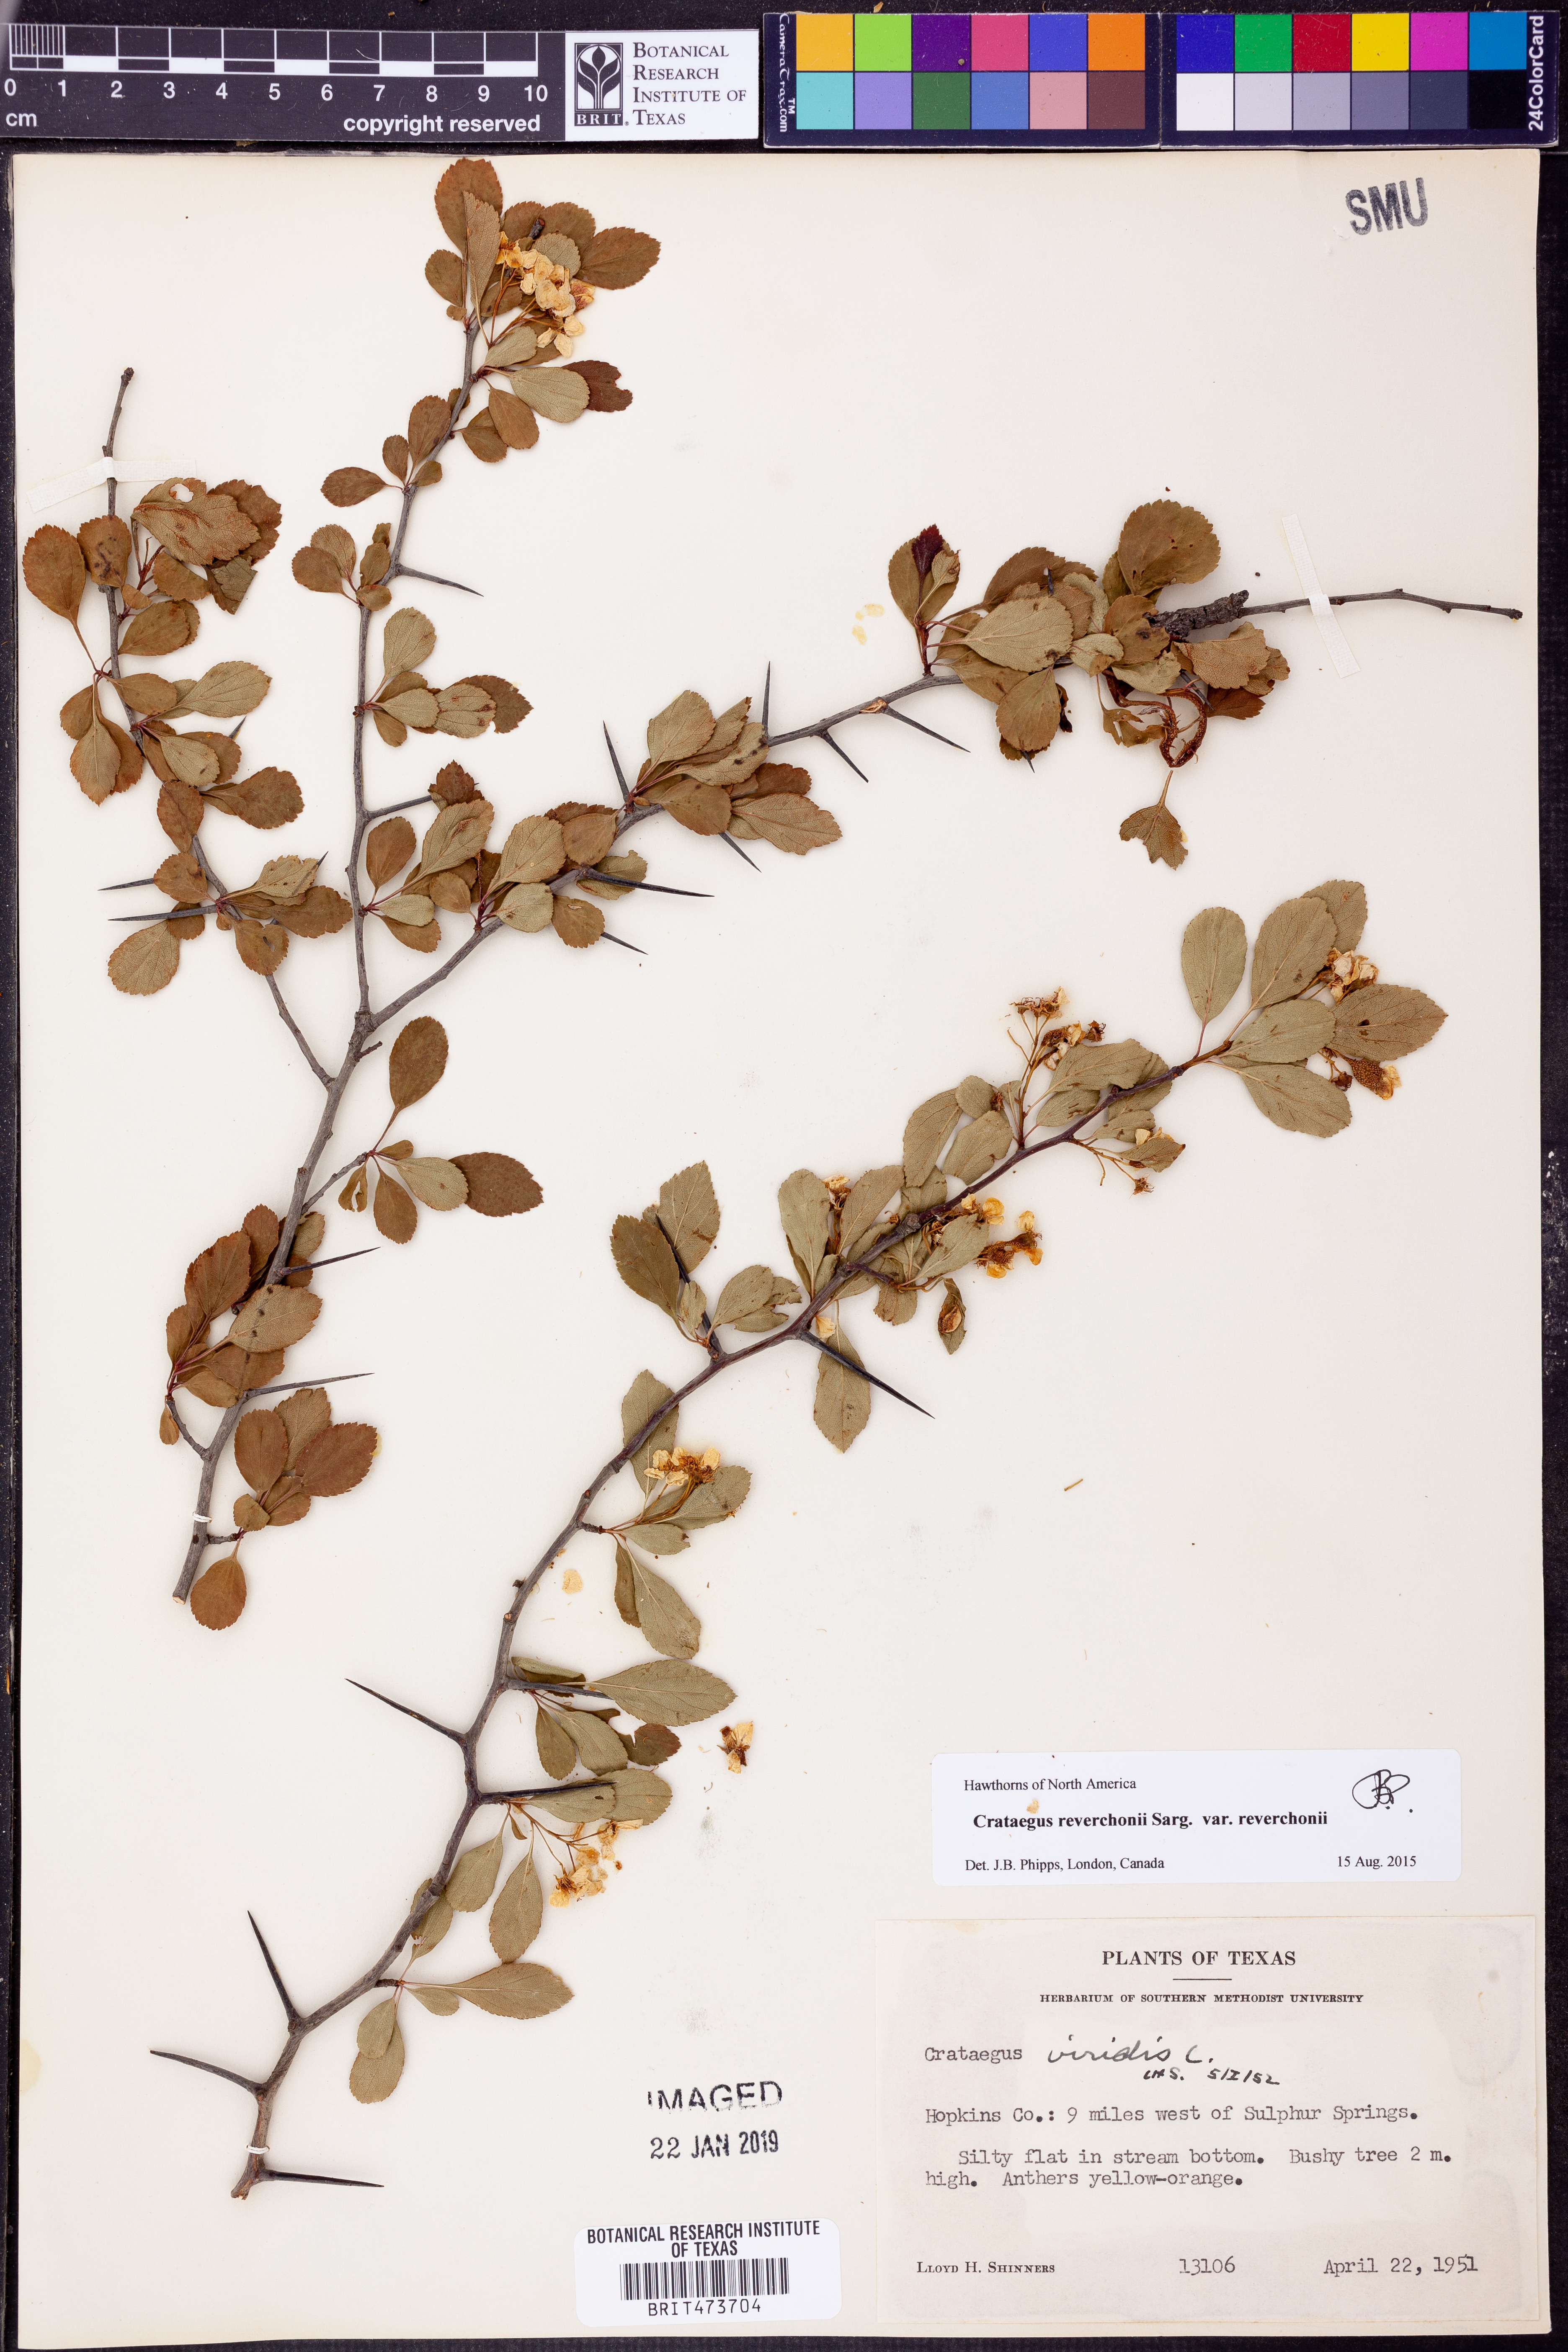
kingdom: Plantae
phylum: Tracheophyta
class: Magnoliopsida
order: Rosales
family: Rosaceae
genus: Crataegus
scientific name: Crataegus reverchonii
